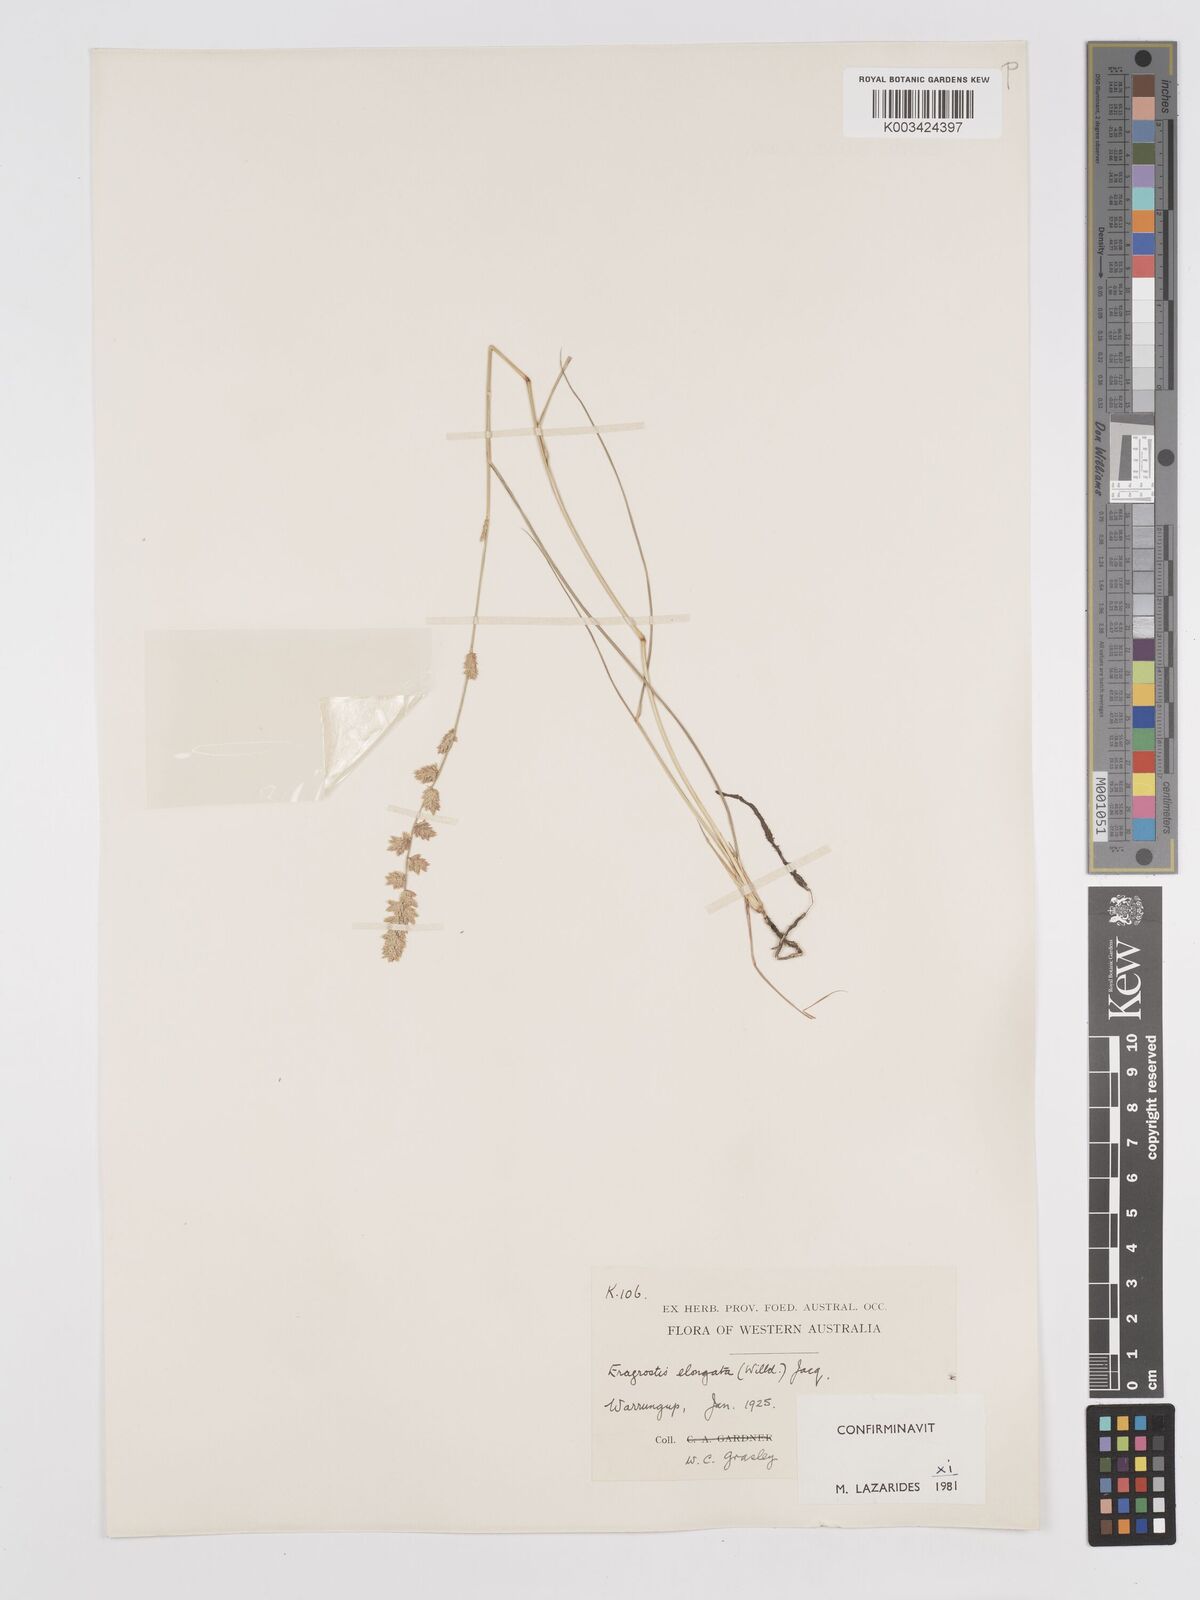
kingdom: Plantae
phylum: Tracheophyta
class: Liliopsida
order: Poales
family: Poaceae
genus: Eragrostis
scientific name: Eragrostis elongata
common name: Long lovegrass
